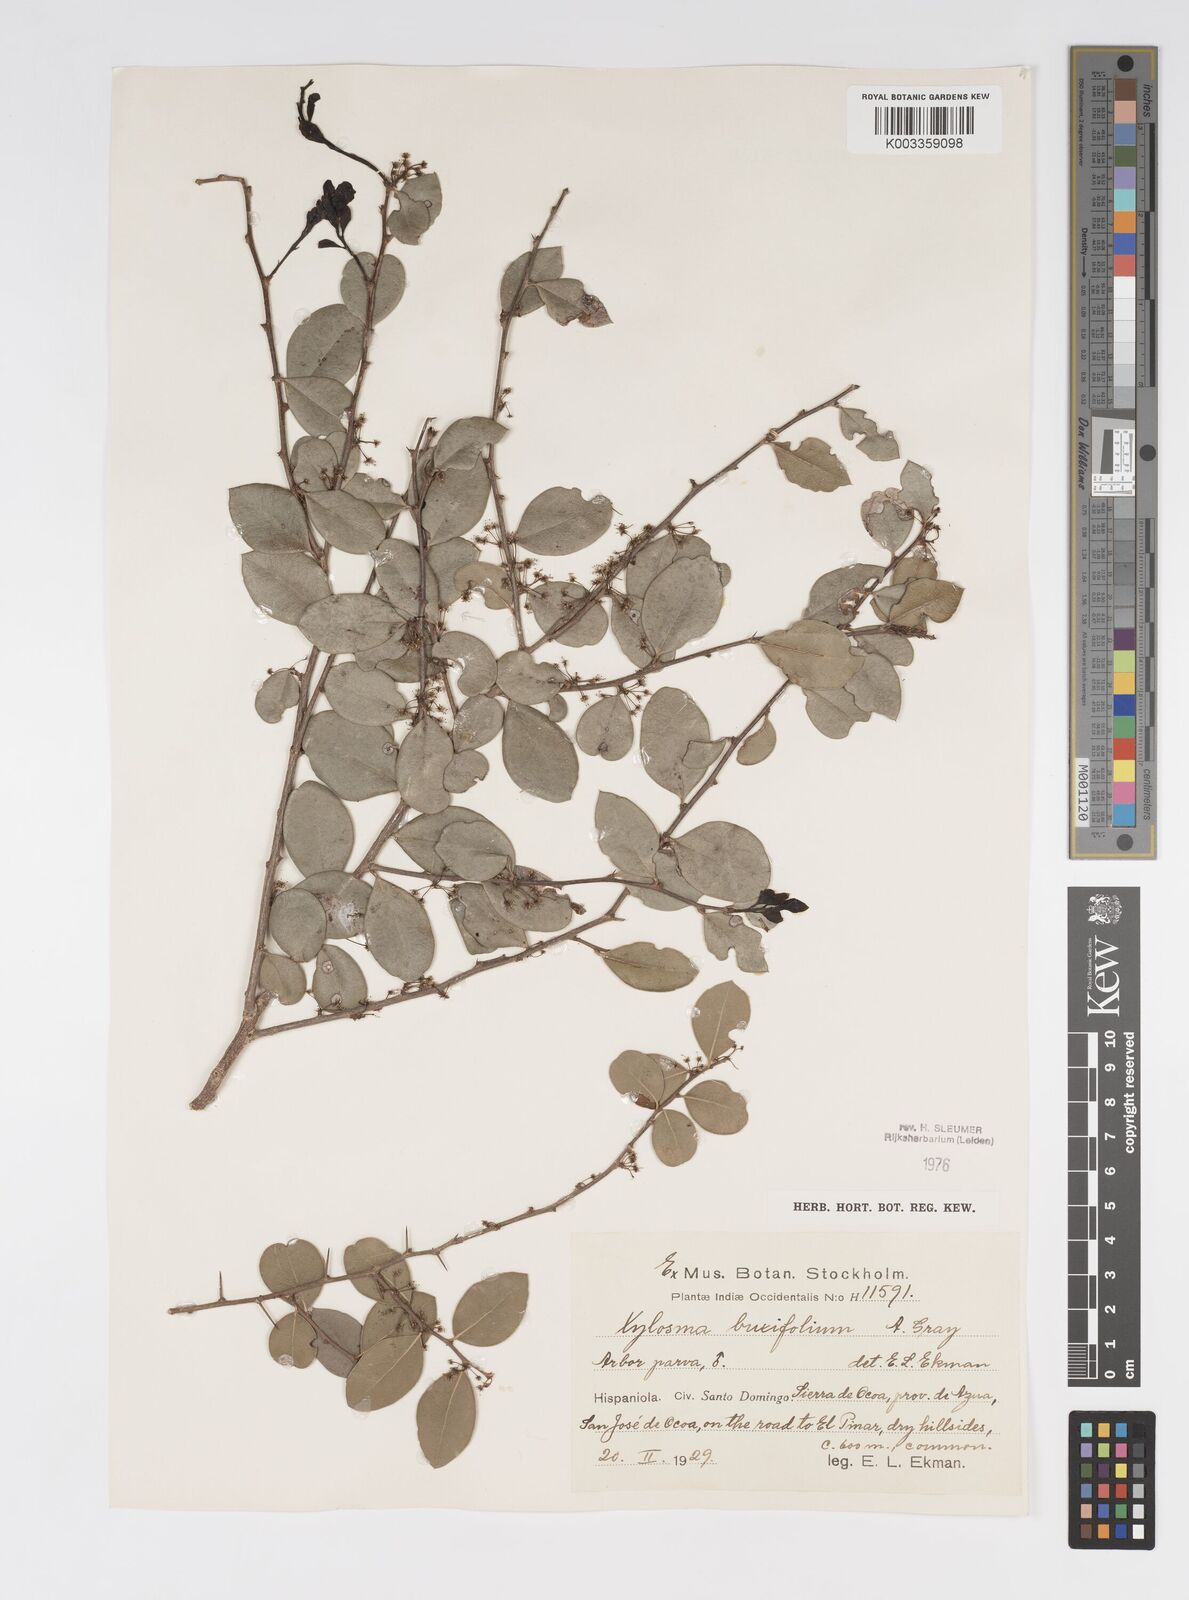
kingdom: Plantae
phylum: Tracheophyta
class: Magnoliopsida
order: Malpighiales
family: Salicaceae
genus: Xylosma
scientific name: Xylosma buxifolia
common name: Cockspur
